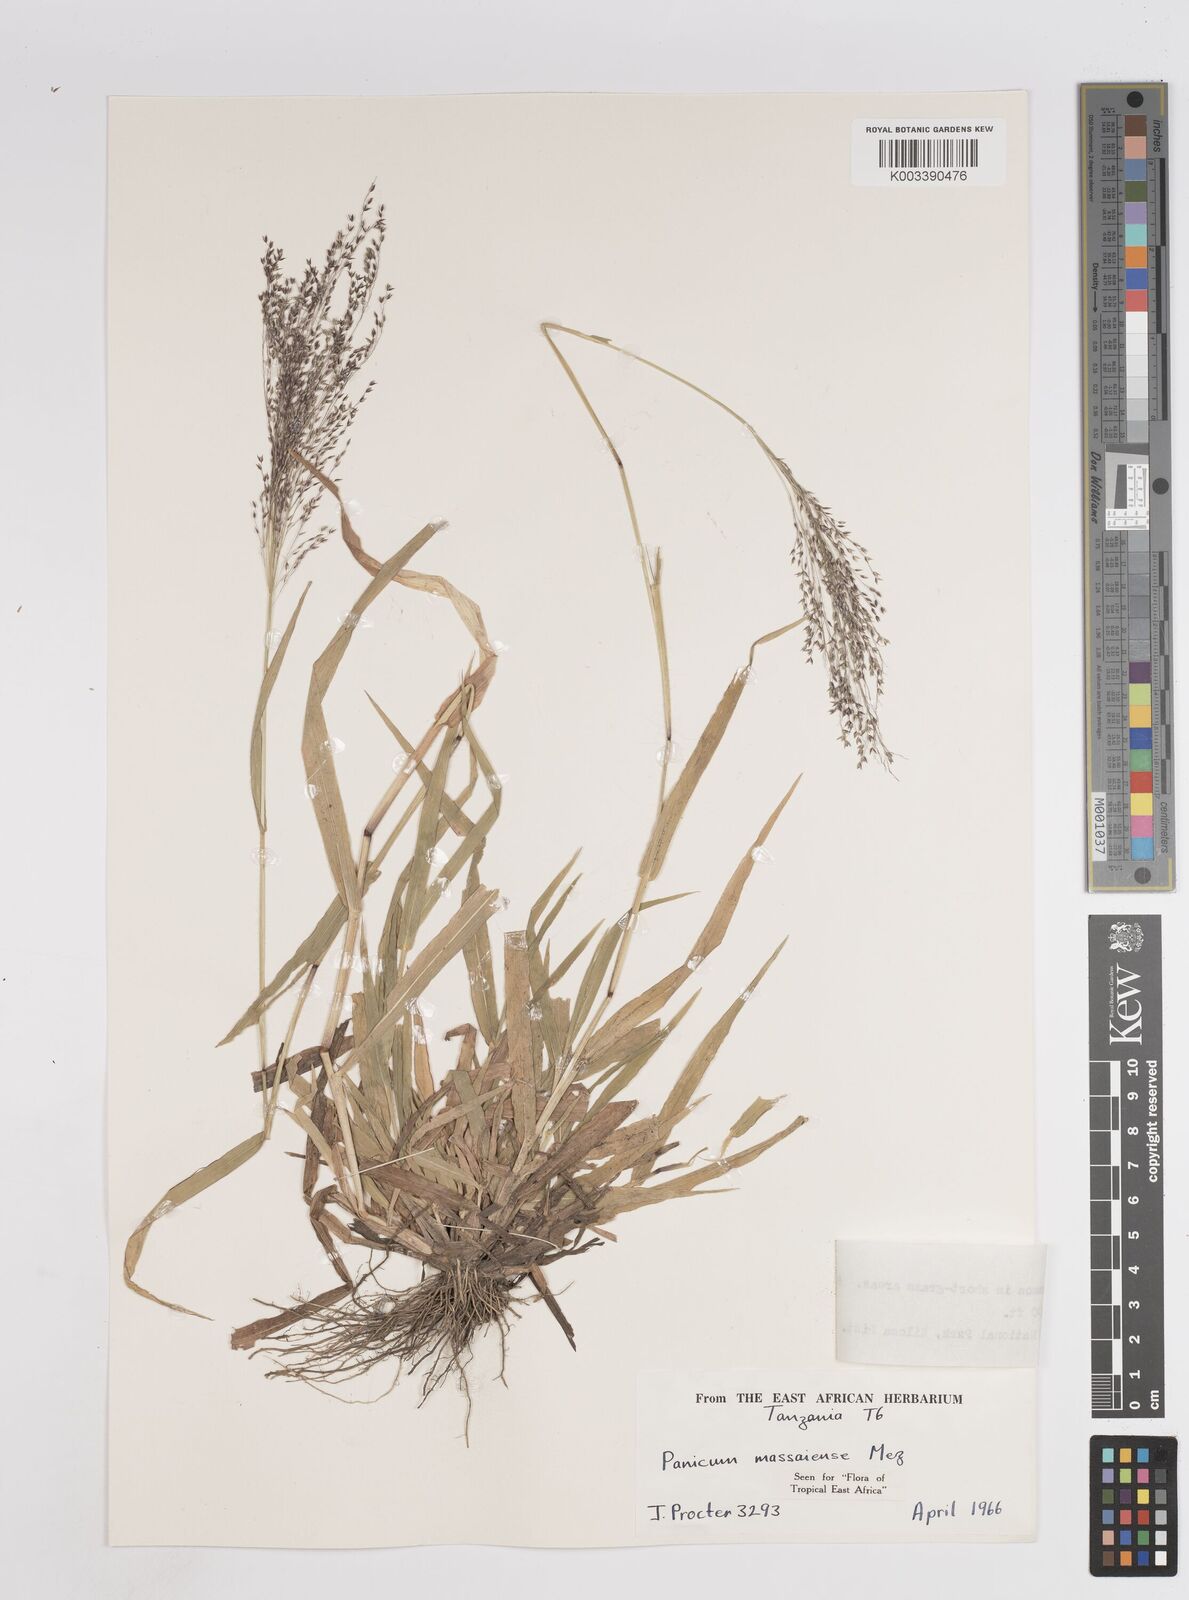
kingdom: Plantae
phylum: Tracheophyta
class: Liliopsida
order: Poales
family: Poaceae
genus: Panicum
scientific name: Panicum massaiense
